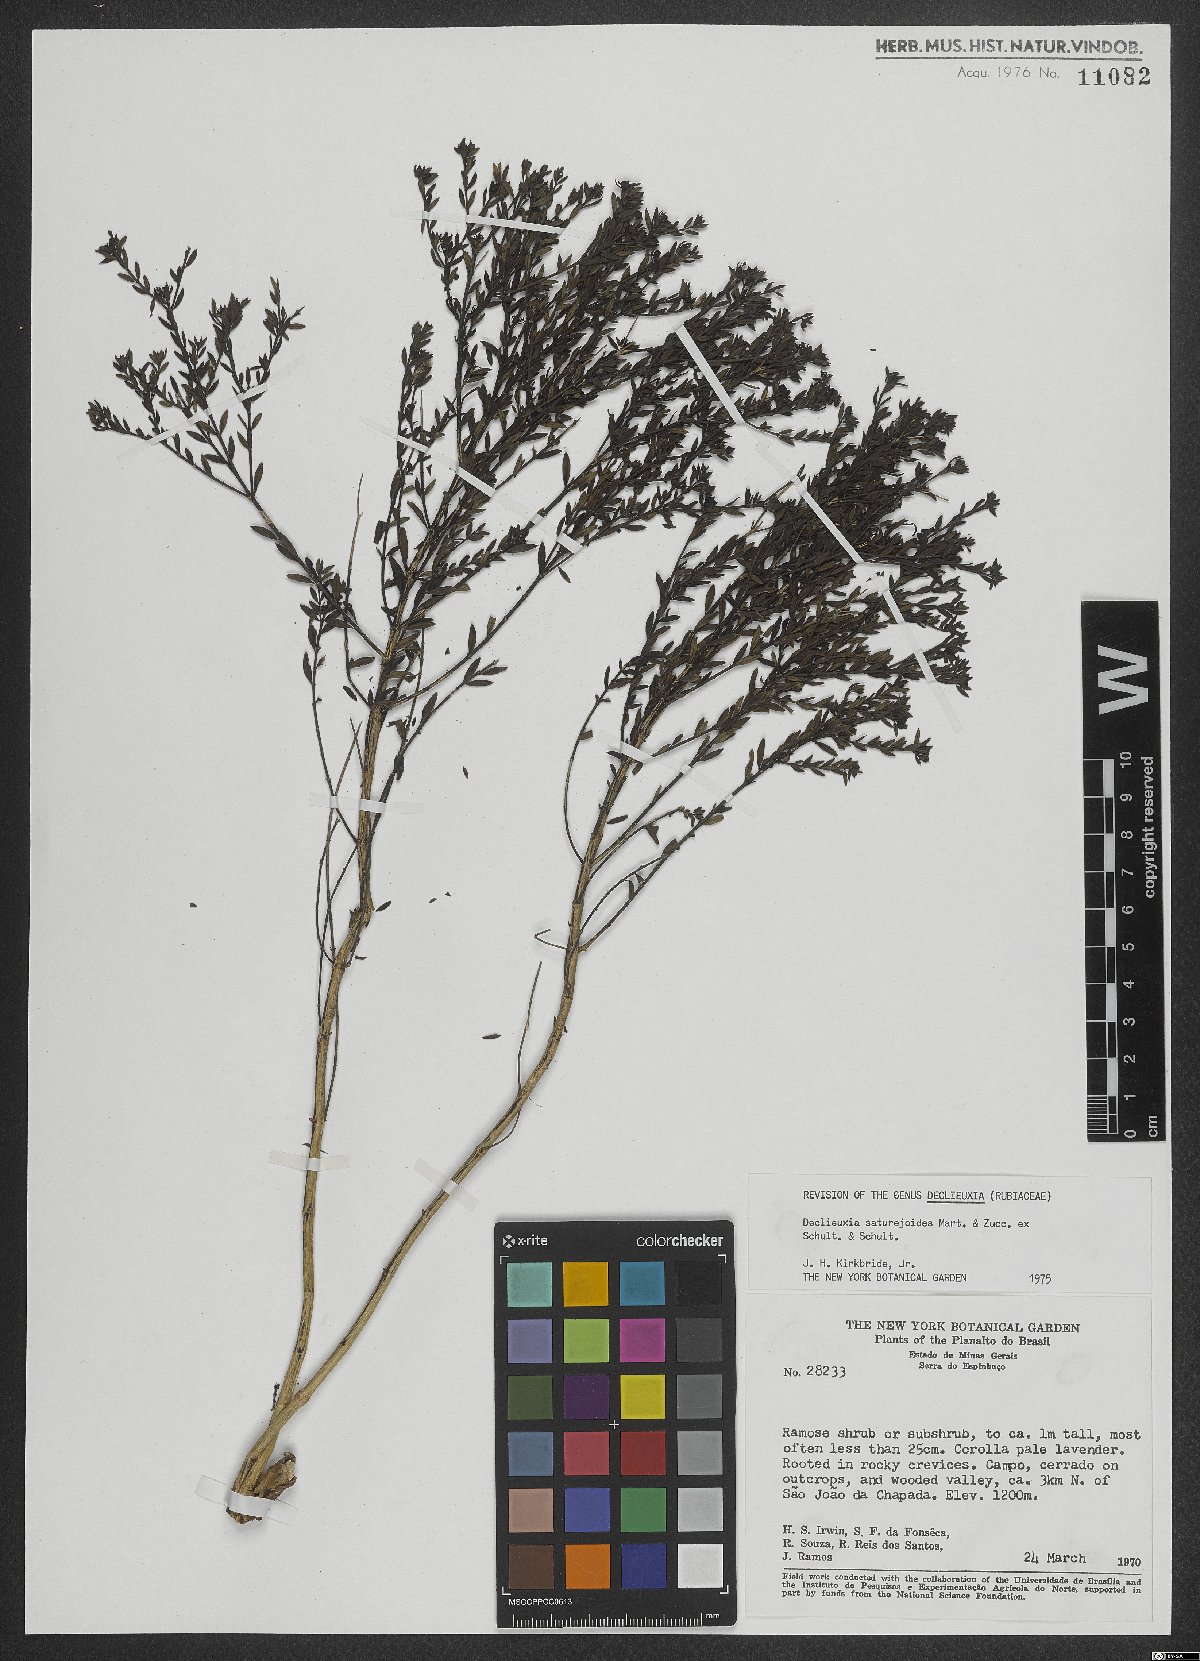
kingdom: Plantae
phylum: Tracheophyta
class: Magnoliopsida
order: Gentianales
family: Rubiaceae
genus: Declieuxia
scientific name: Declieuxia saturejoides
